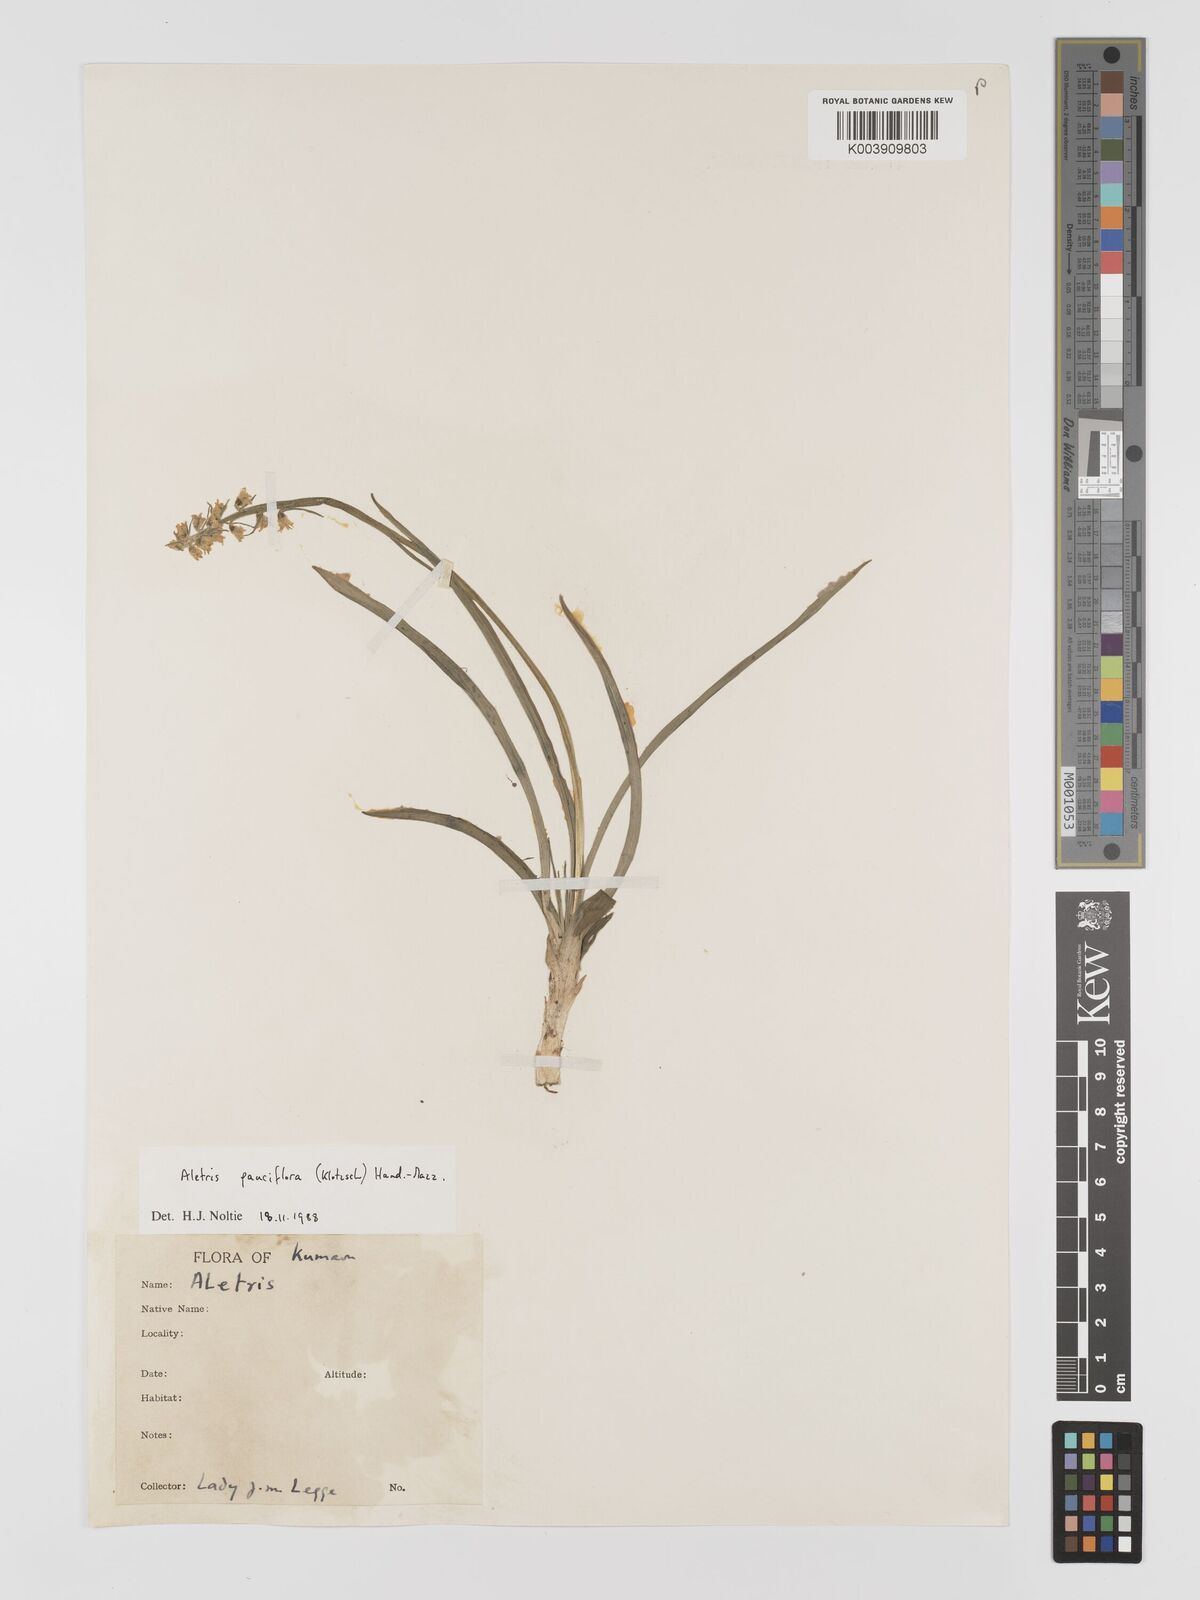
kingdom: Plantae
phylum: Tracheophyta
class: Liliopsida
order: Dioscoreales
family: Nartheciaceae
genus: Aletris
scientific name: Aletris pauciflora
